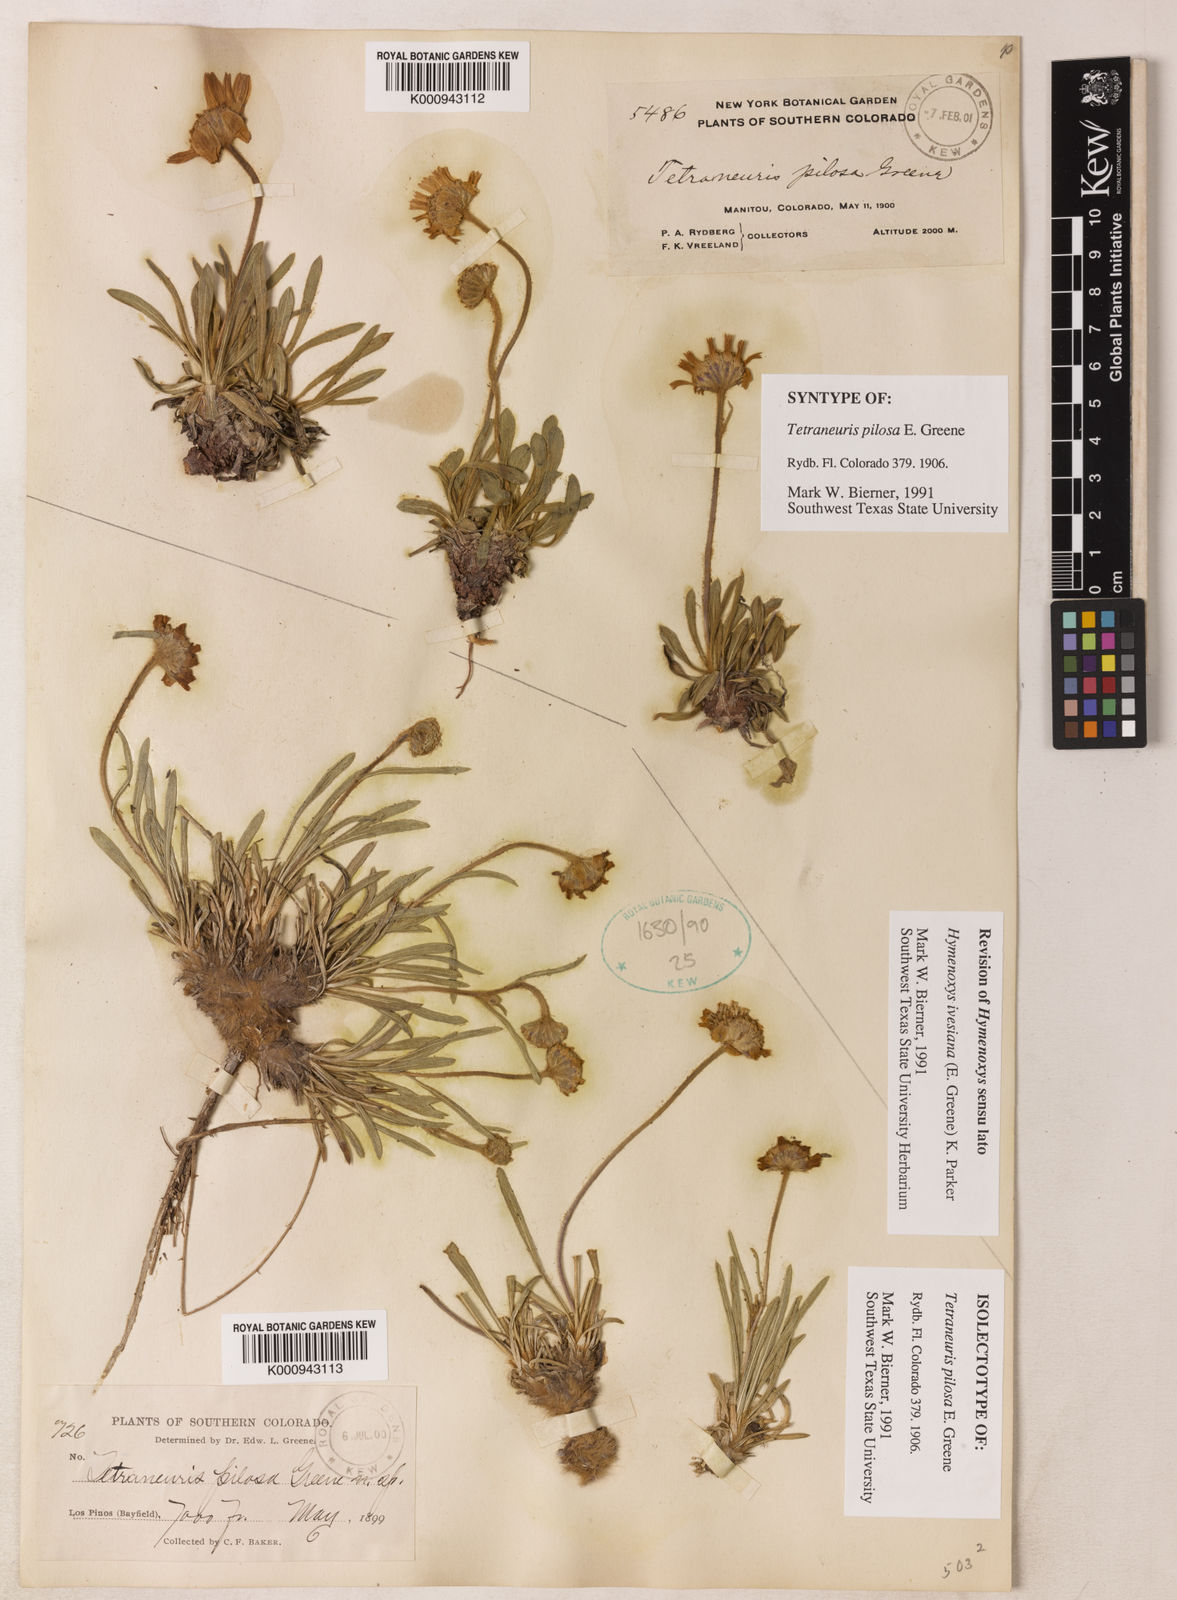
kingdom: Plantae
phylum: Tracheophyta
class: Magnoliopsida
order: Asterales
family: Asteraceae
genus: Tetraneuris
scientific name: Tetraneuris ivesiana
